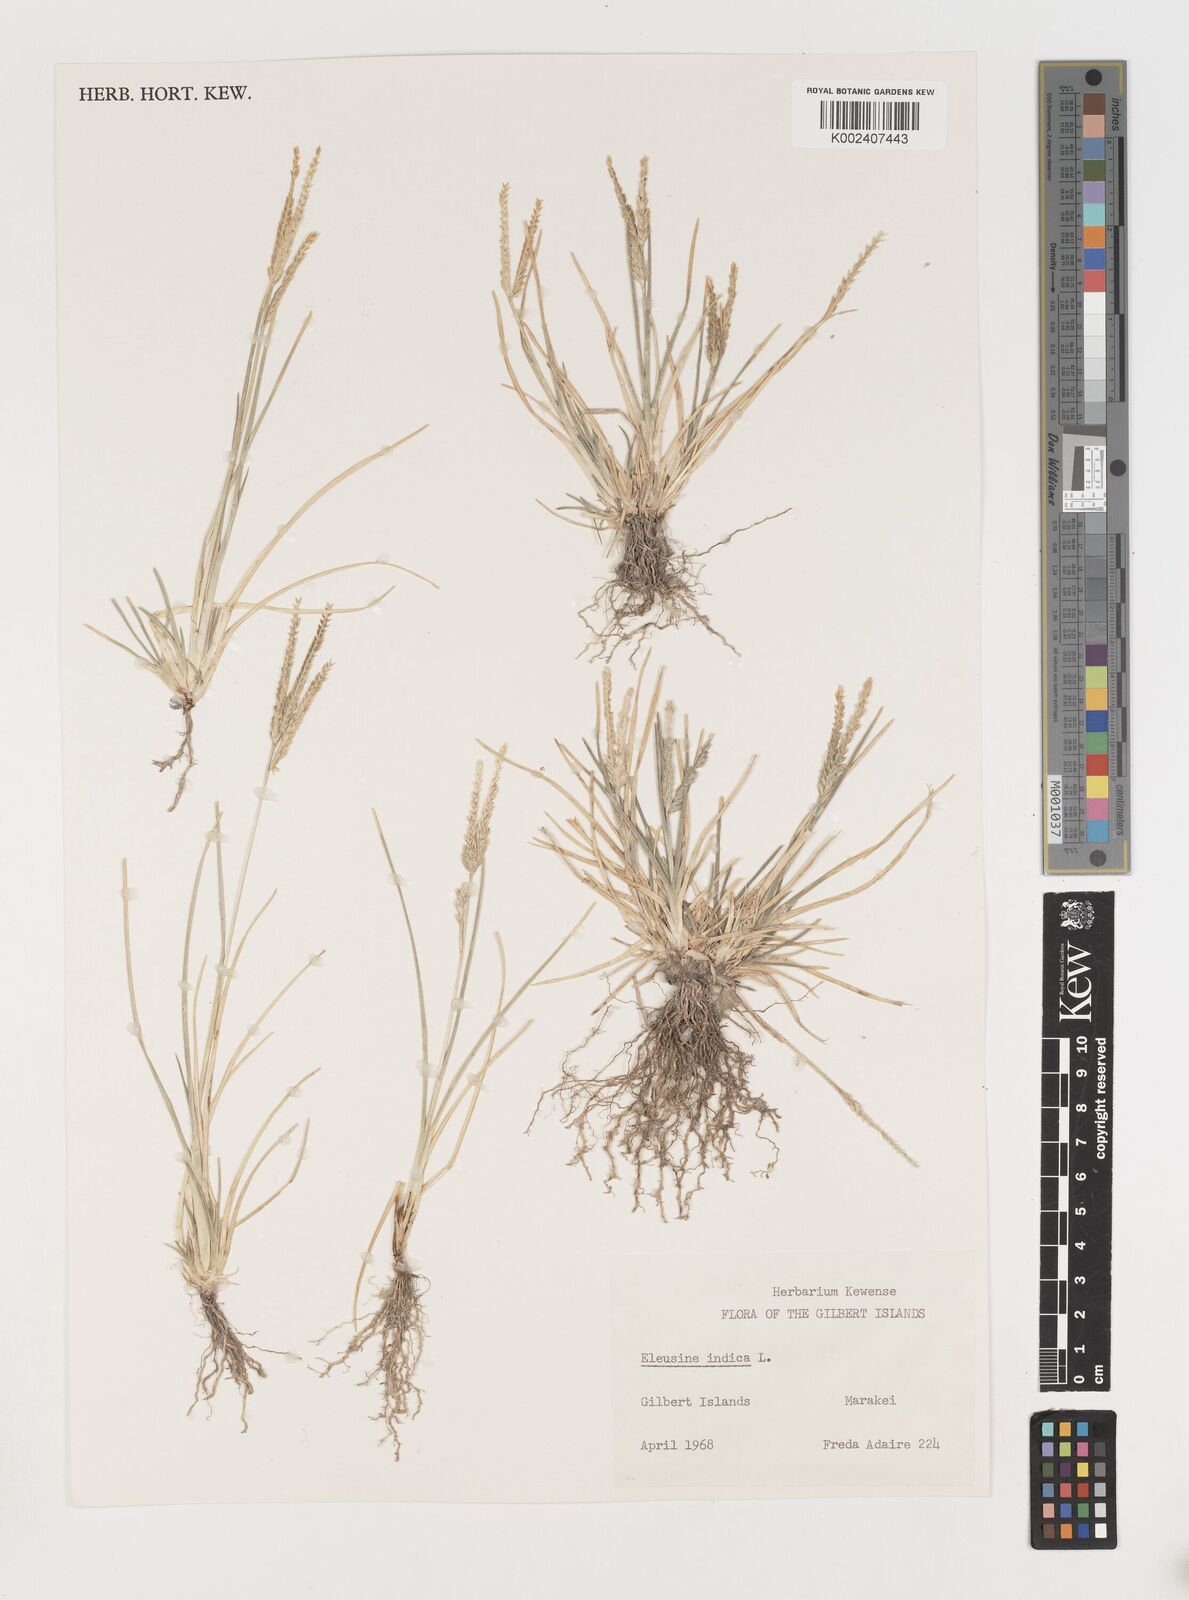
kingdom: Plantae
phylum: Tracheophyta
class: Liliopsida
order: Poales
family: Poaceae
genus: Eleusine
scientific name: Eleusine indica
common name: Yard-grass
